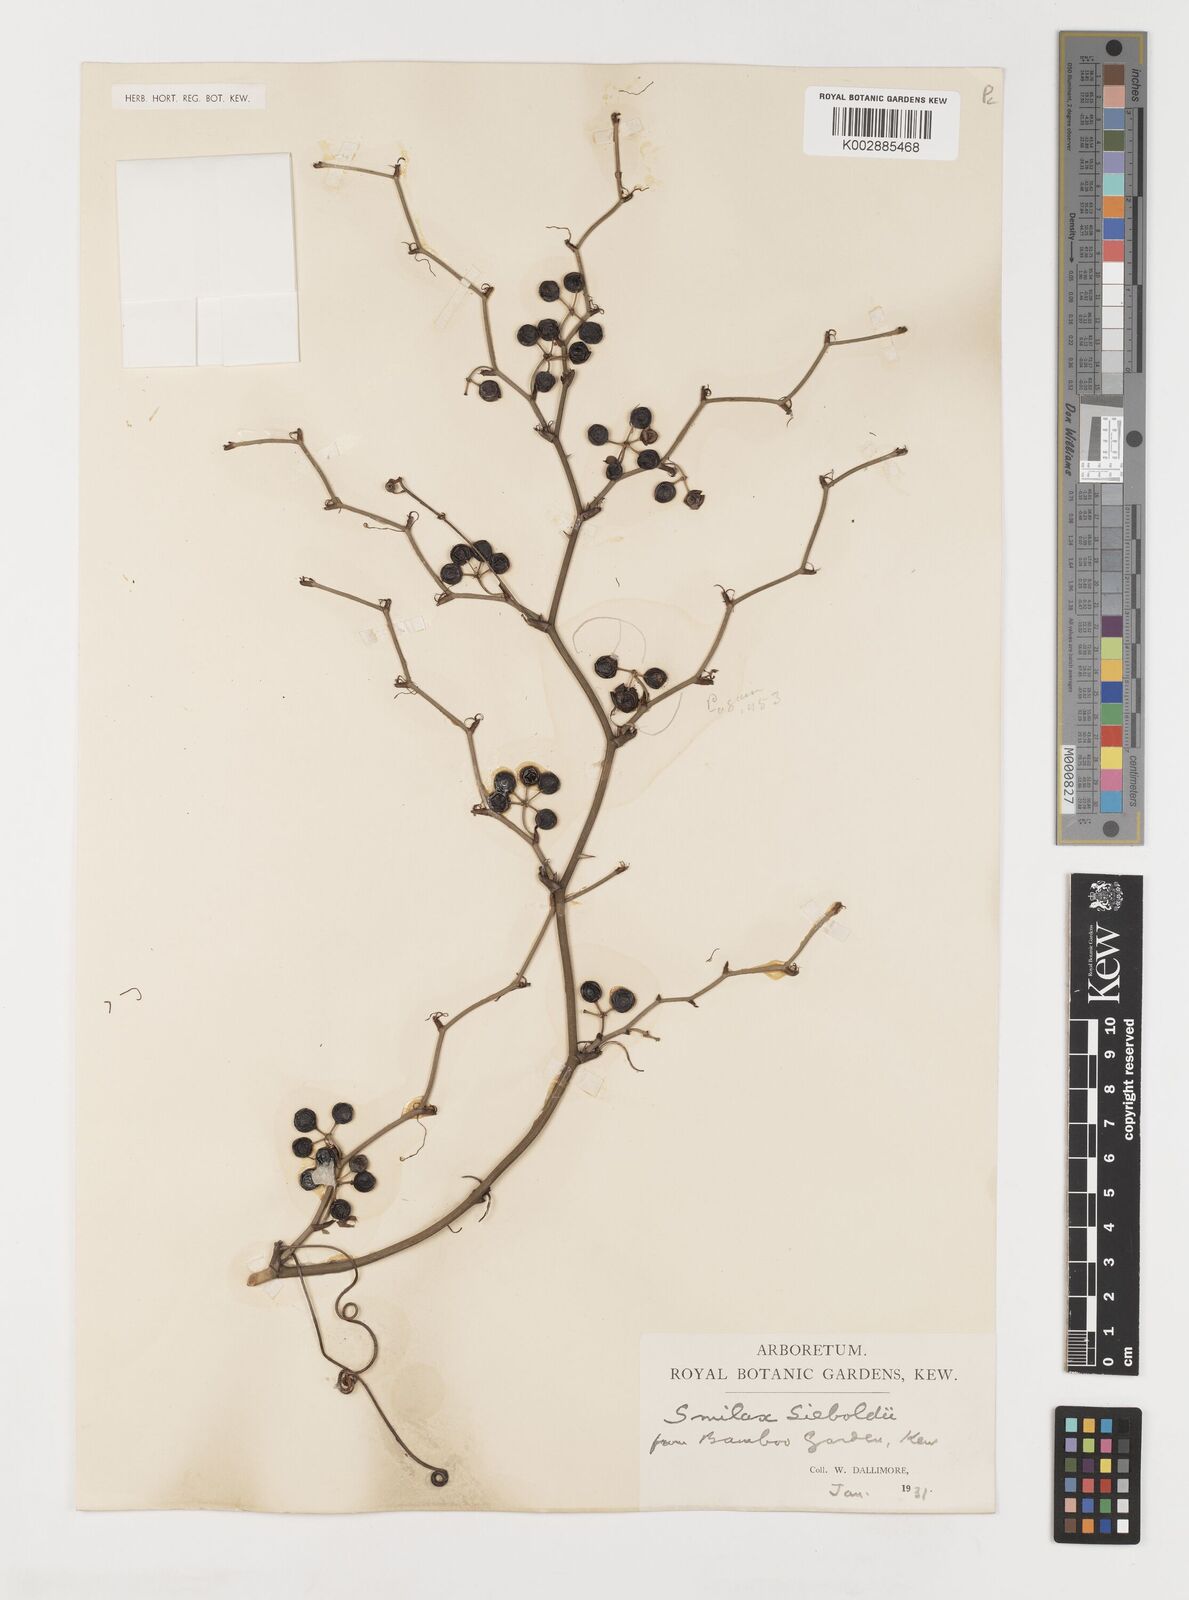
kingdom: Plantae
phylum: Tracheophyta
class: Liliopsida
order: Liliales
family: Smilacaceae
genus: Smilax
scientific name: Smilax sieboldii
